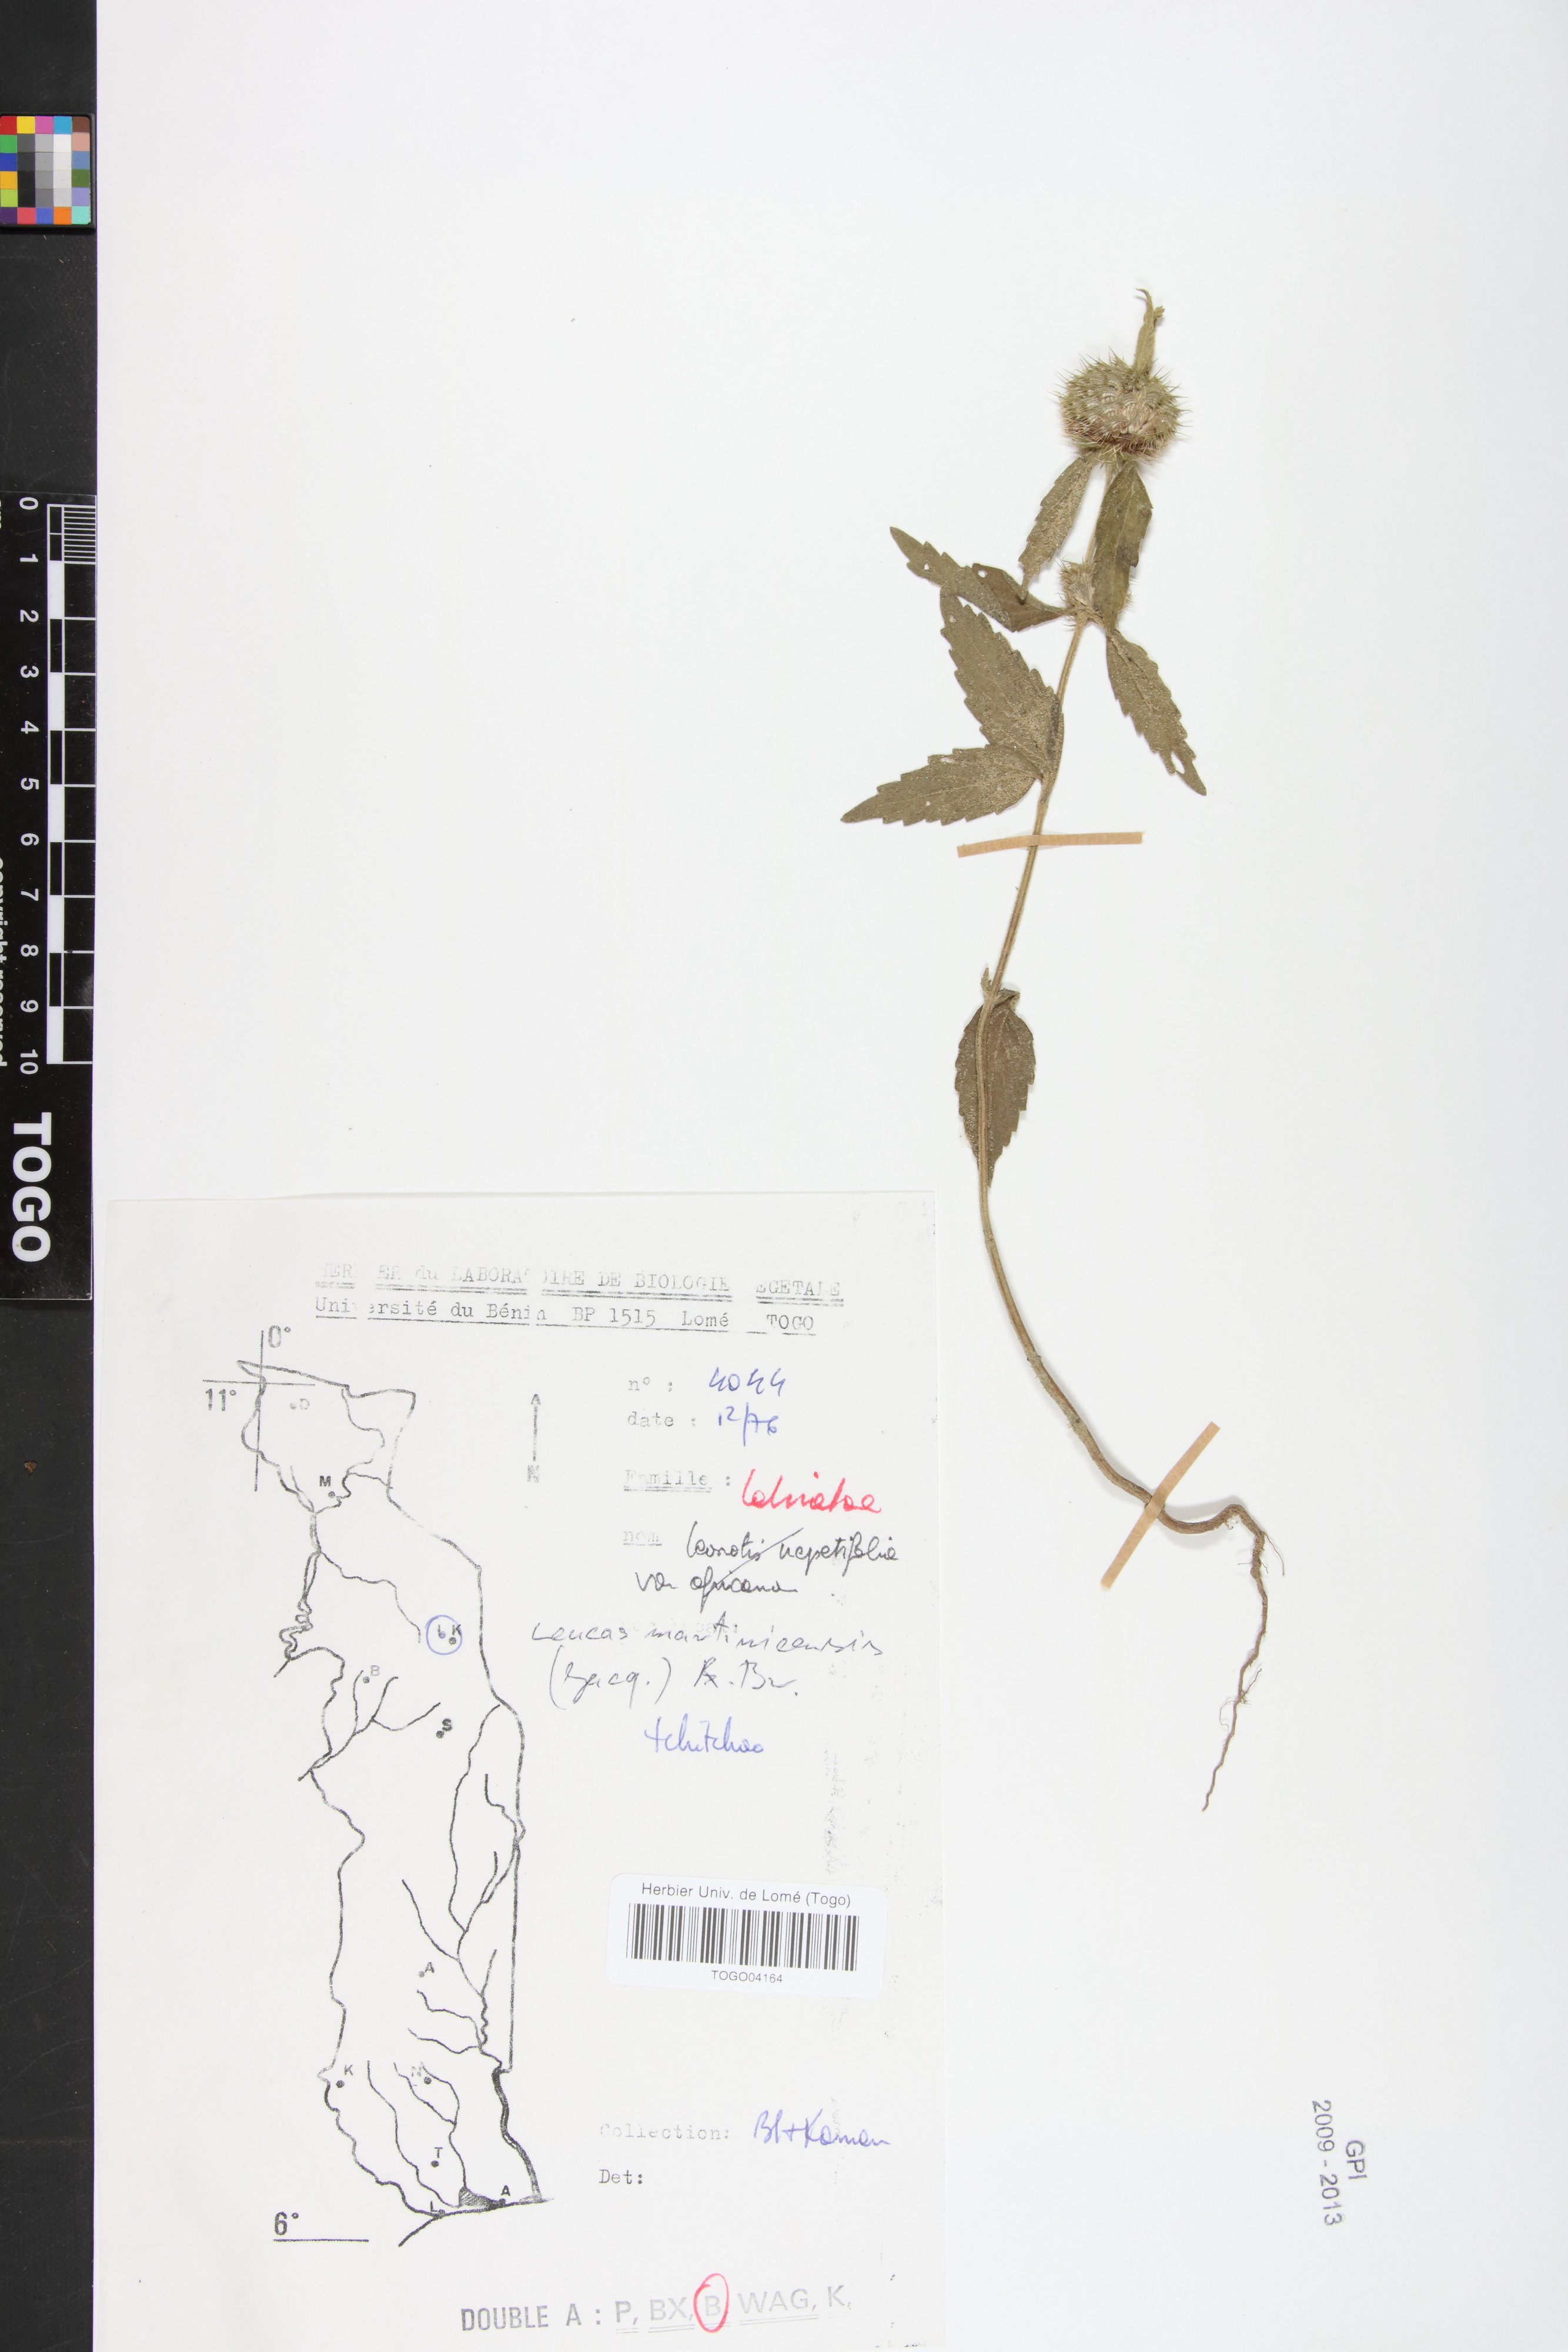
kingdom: Plantae
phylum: Tracheophyta
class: Magnoliopsida
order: Lamiales
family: Lamiaceae
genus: Leucas
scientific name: Leucas martinicensis
